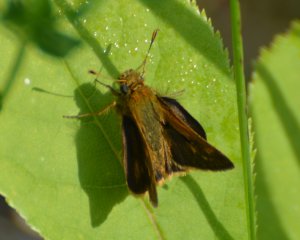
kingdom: Animalia
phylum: Arthropoda
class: Insecta
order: Lepidoptera
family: Hesperiidae
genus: Polites
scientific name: Polites coras
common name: Peck's Skipper
